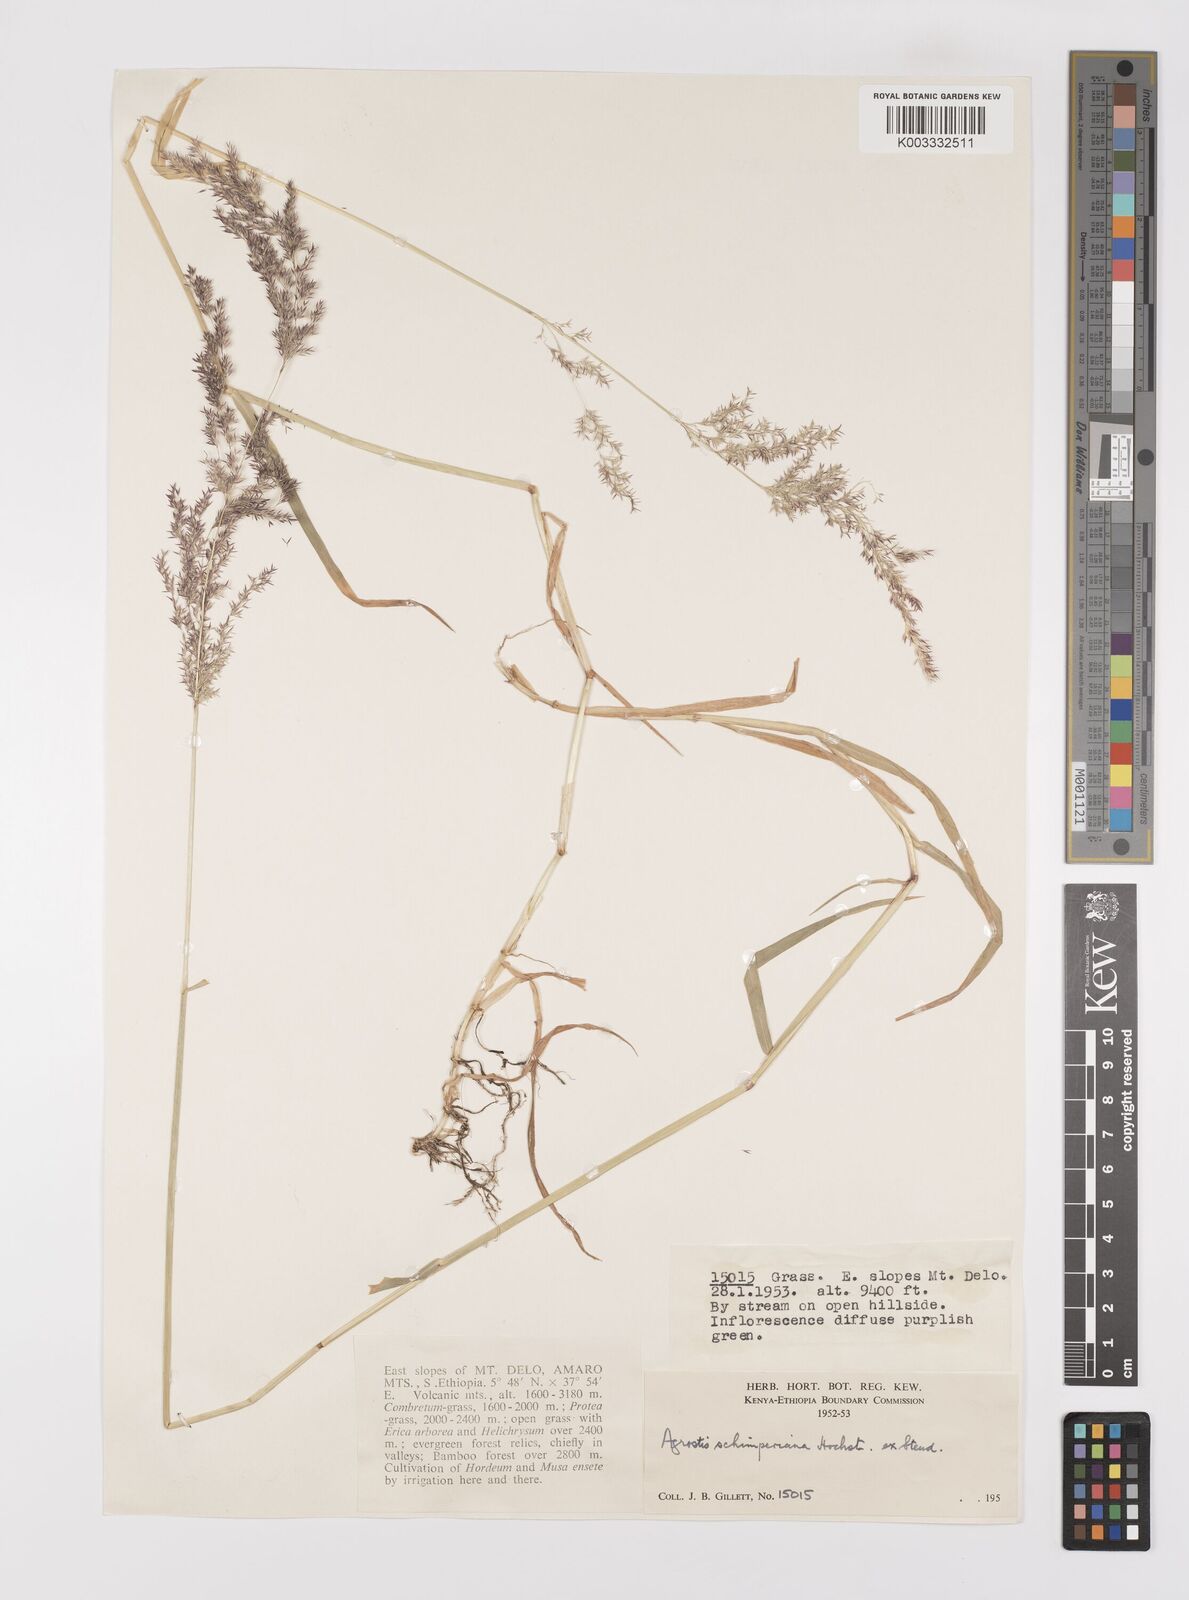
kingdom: Plantae
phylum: Tracheophyta
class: Liliopsida
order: Poales
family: Poaceae
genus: Polypogon
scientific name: Polypogon schimperianus
